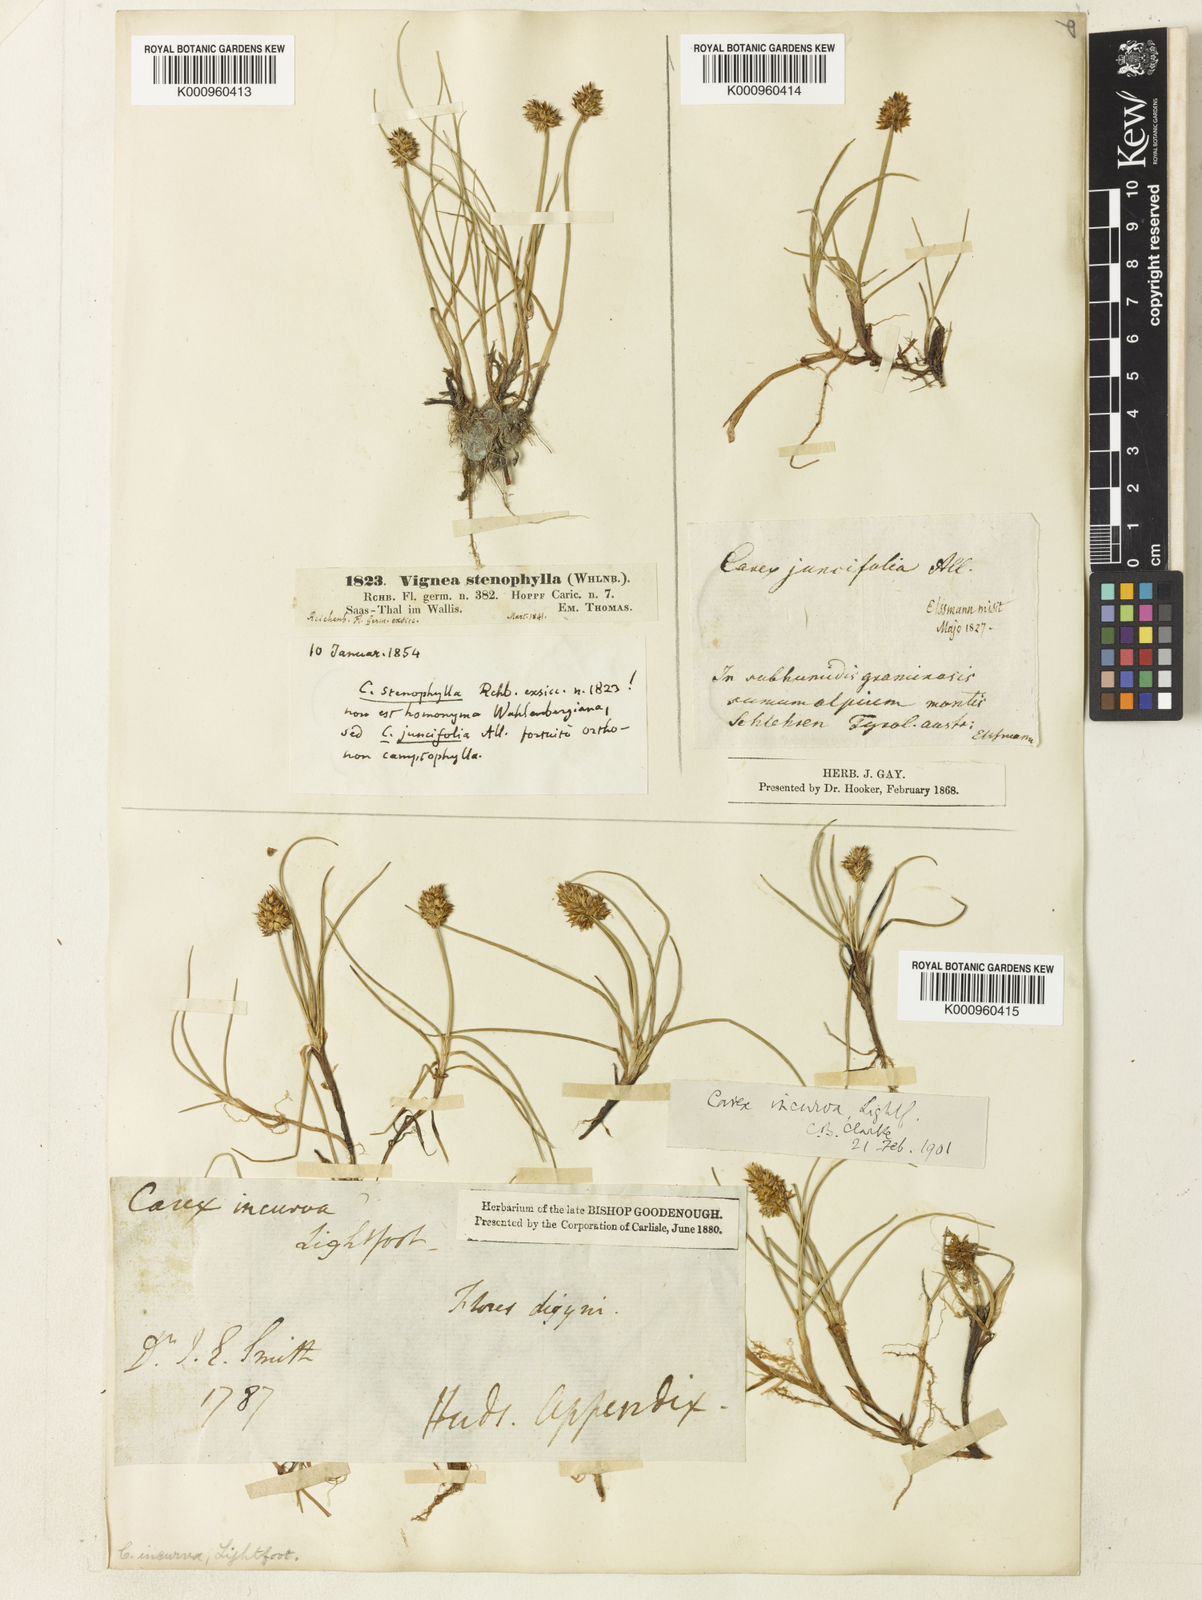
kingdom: Plantae
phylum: Tracheophyta
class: Liliopsida
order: Poales
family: Cyperaceae
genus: Carex
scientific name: Carex maritima
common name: Curved sedge
